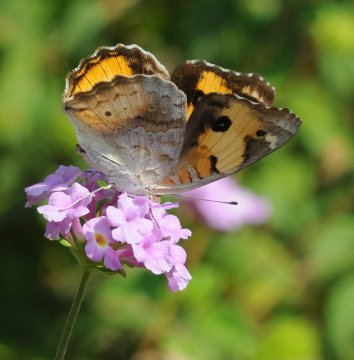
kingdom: Animalia
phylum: Arthropoda
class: Insecta
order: Lepidoptera
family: Nymphalidae
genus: Junonia
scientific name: Junonia hierta
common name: Yellow Pansy
